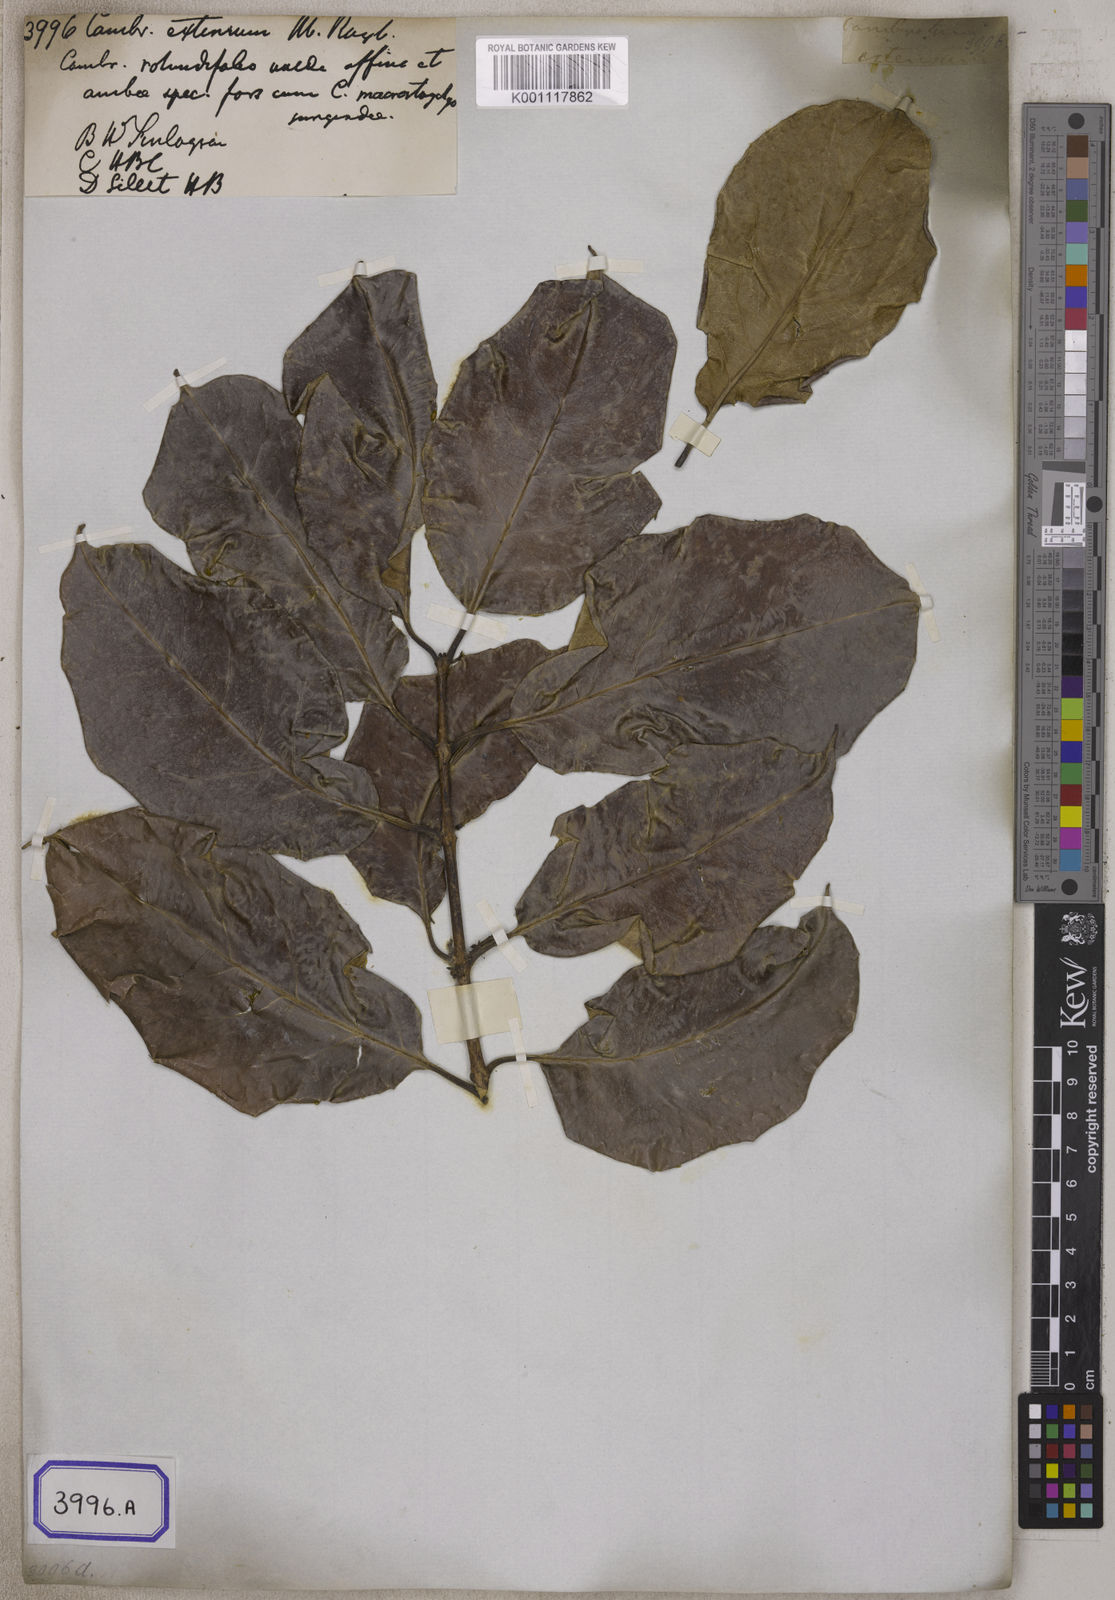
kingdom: Plantae
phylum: Tracheophyta
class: Magnoliopsida
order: Myrtales
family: Combretaceae
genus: Combretum
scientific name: Combretum
